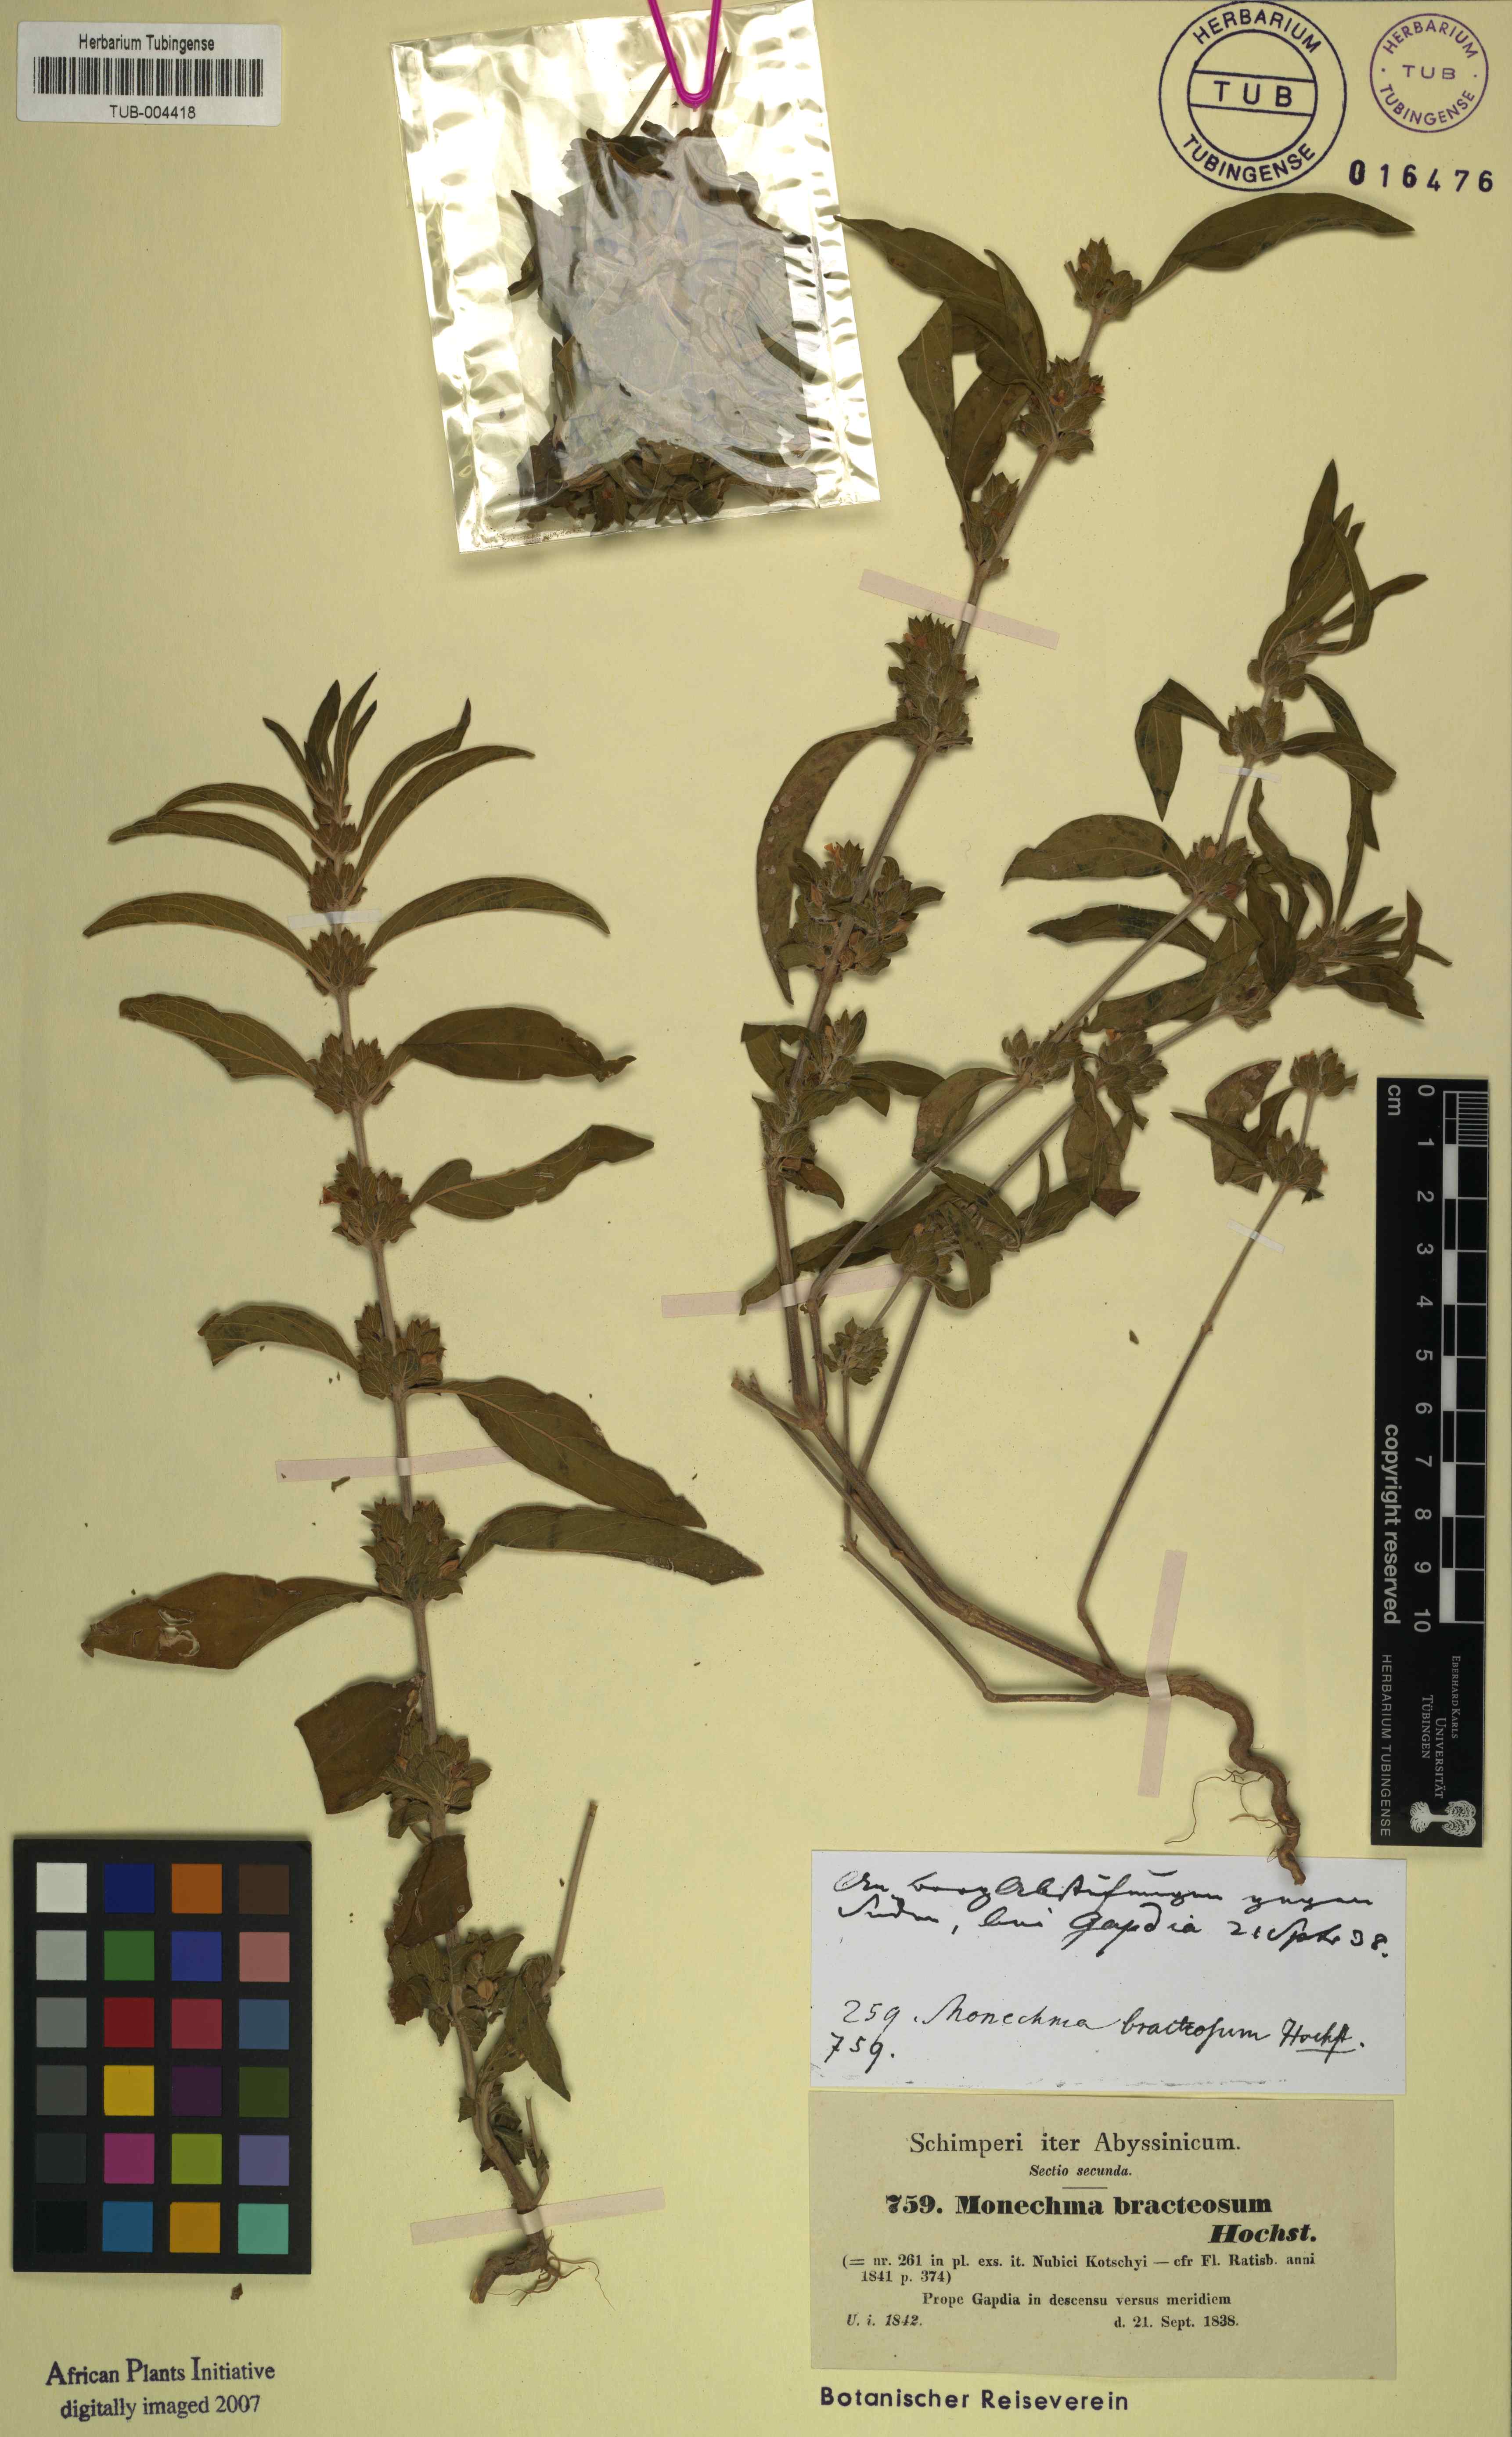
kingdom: Plantae
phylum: Tracheophyta
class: Magnoliopsida
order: Lamiales
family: Acanthaceae
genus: Monechma
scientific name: Monechma debile
